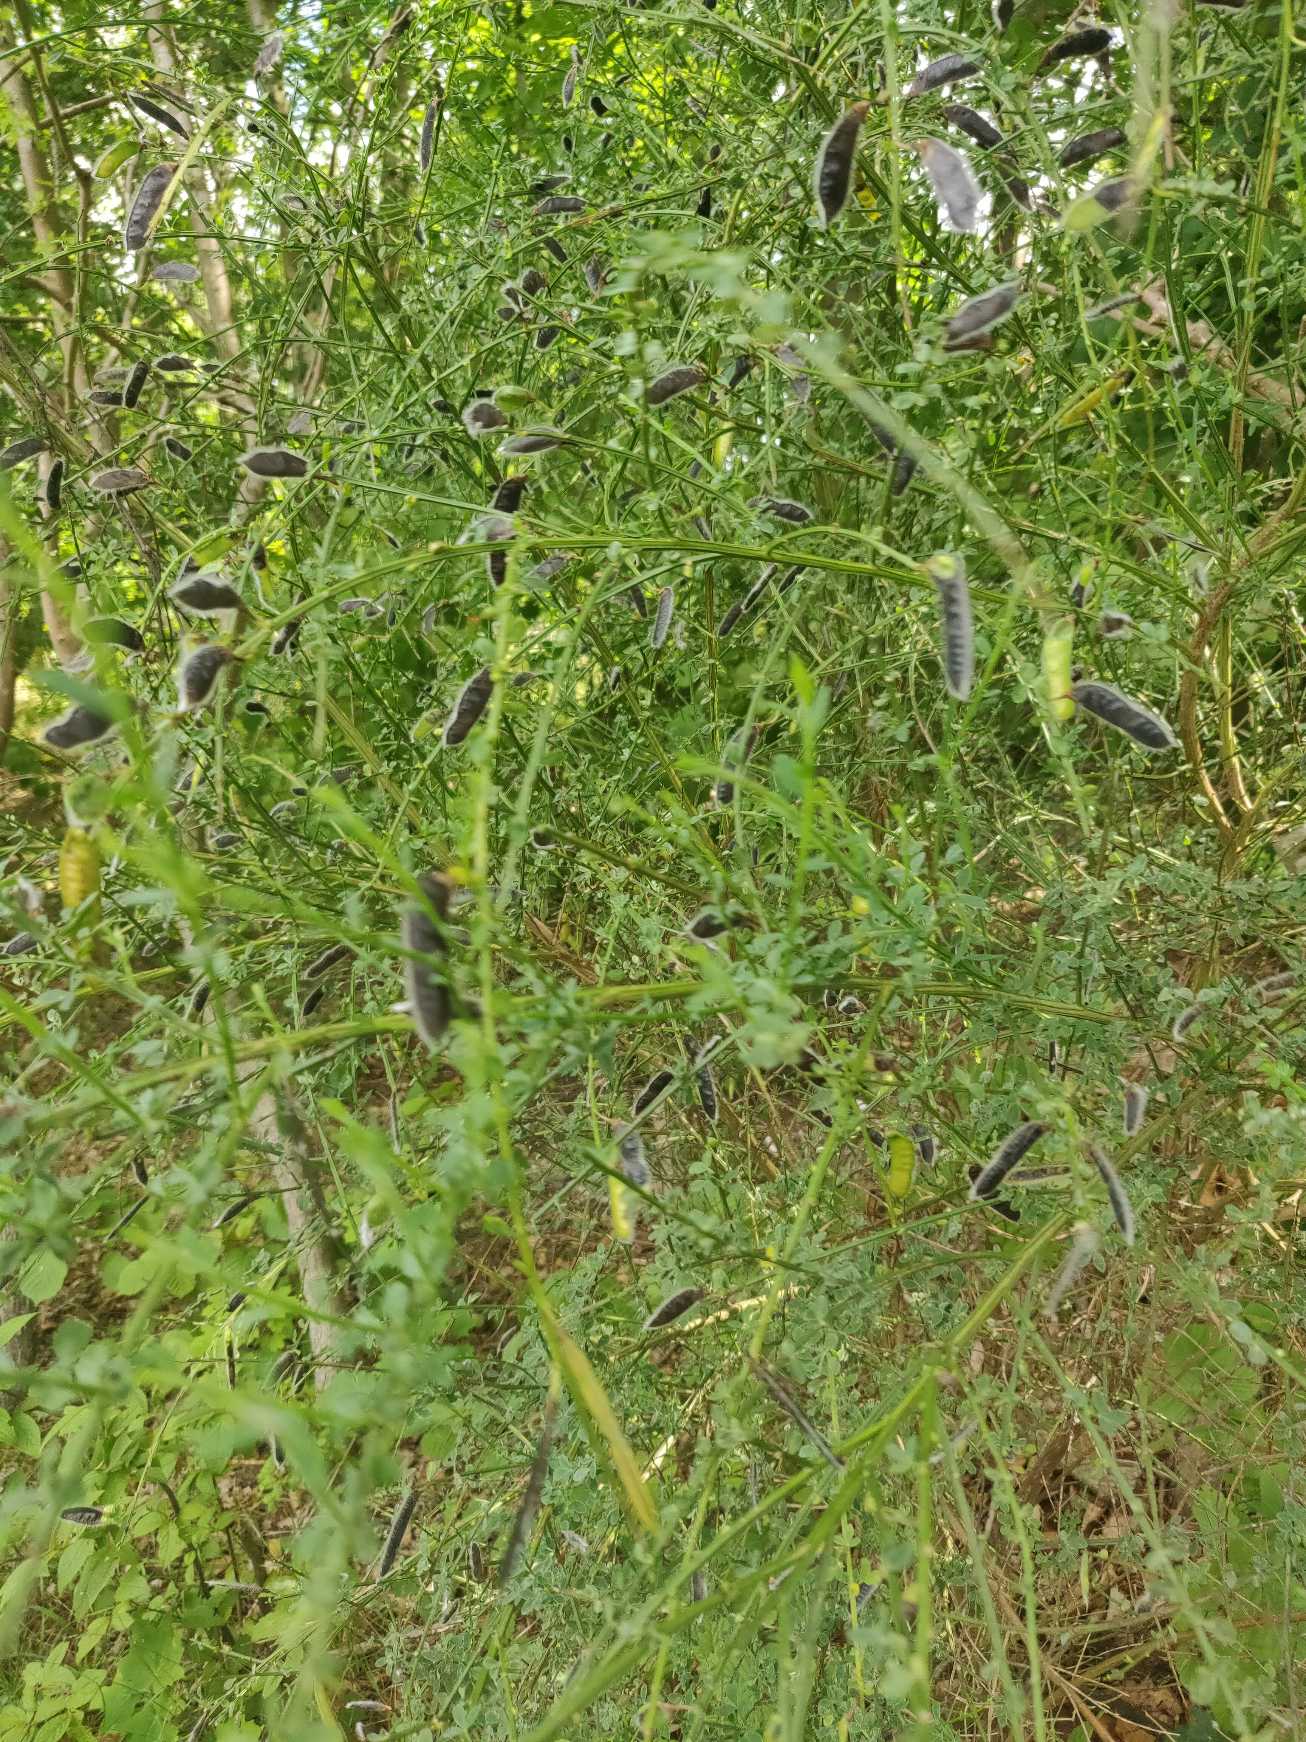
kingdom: Plantae
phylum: Tracheophyta
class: Magnoliopsida
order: Fabales
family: Fabaceae
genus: Cytisus
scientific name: Cytisus scoparius
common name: Almindelig gyvel
